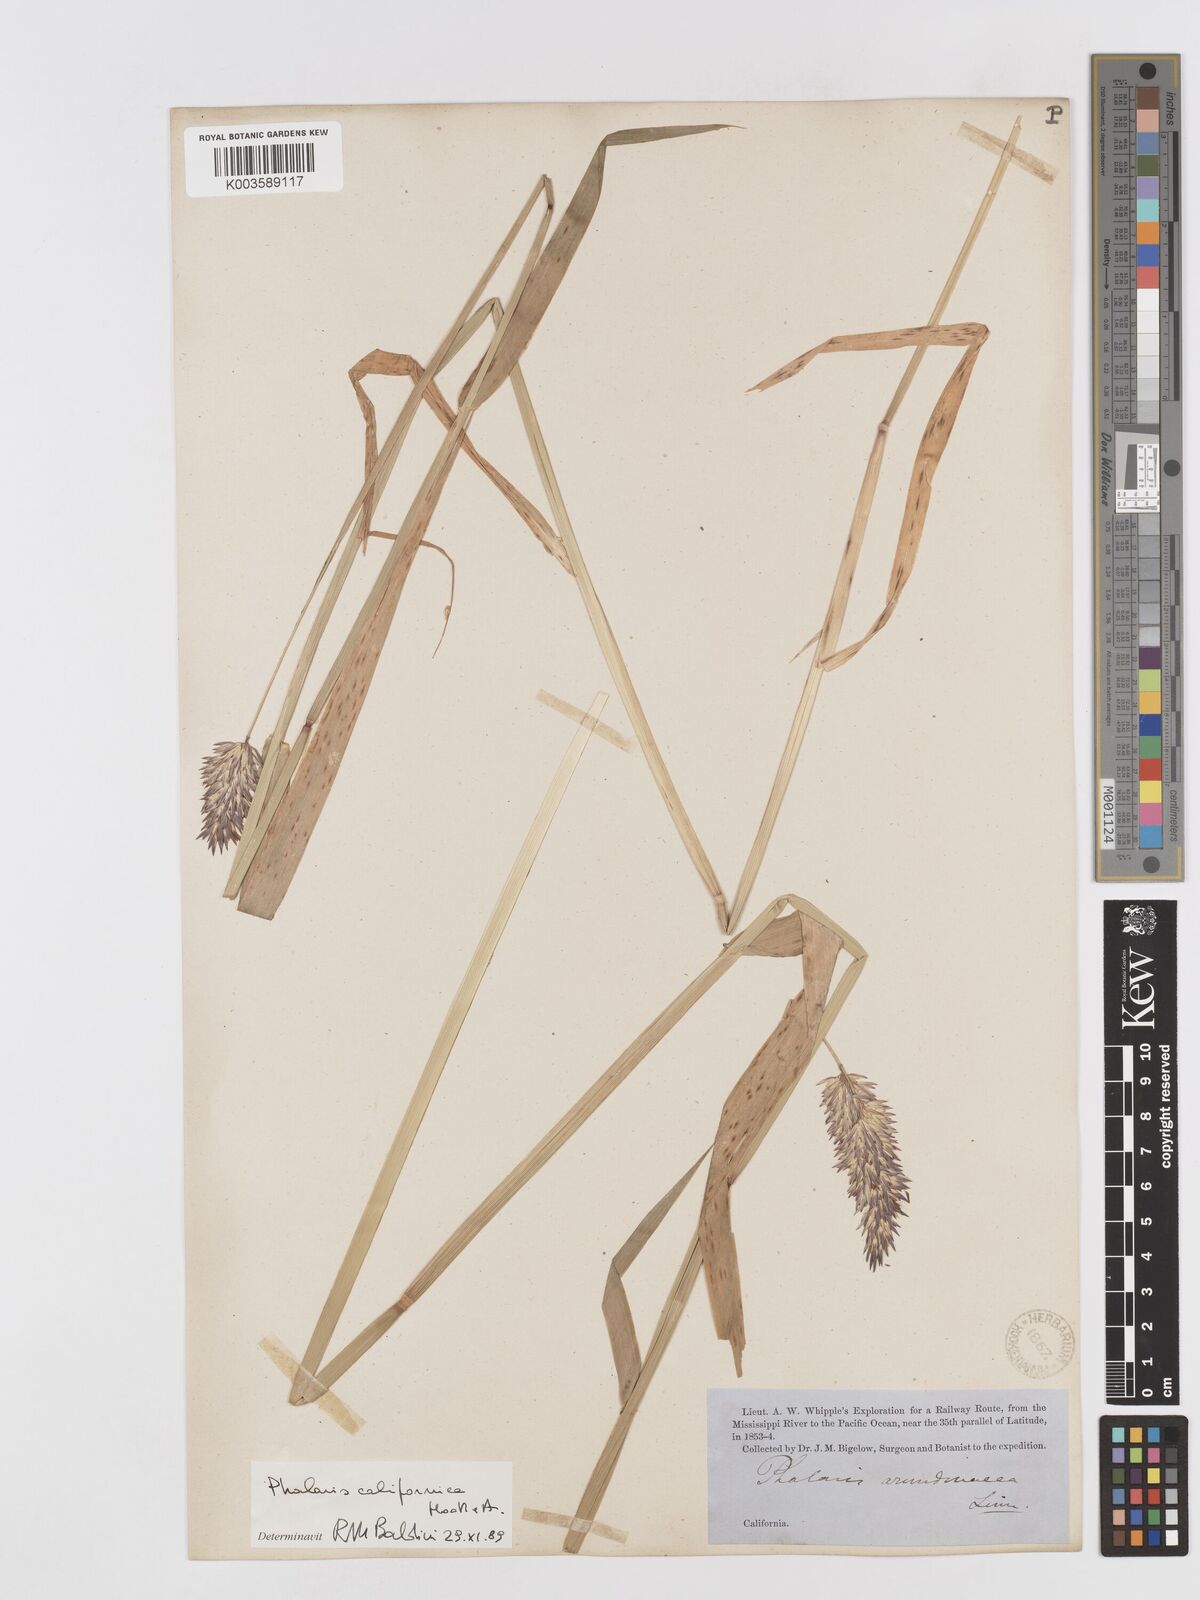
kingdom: Plantae
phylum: Tracheophyta
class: Liliopsida
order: Poales
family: Poaceae
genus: Phalaris
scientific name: Phalaris californica
